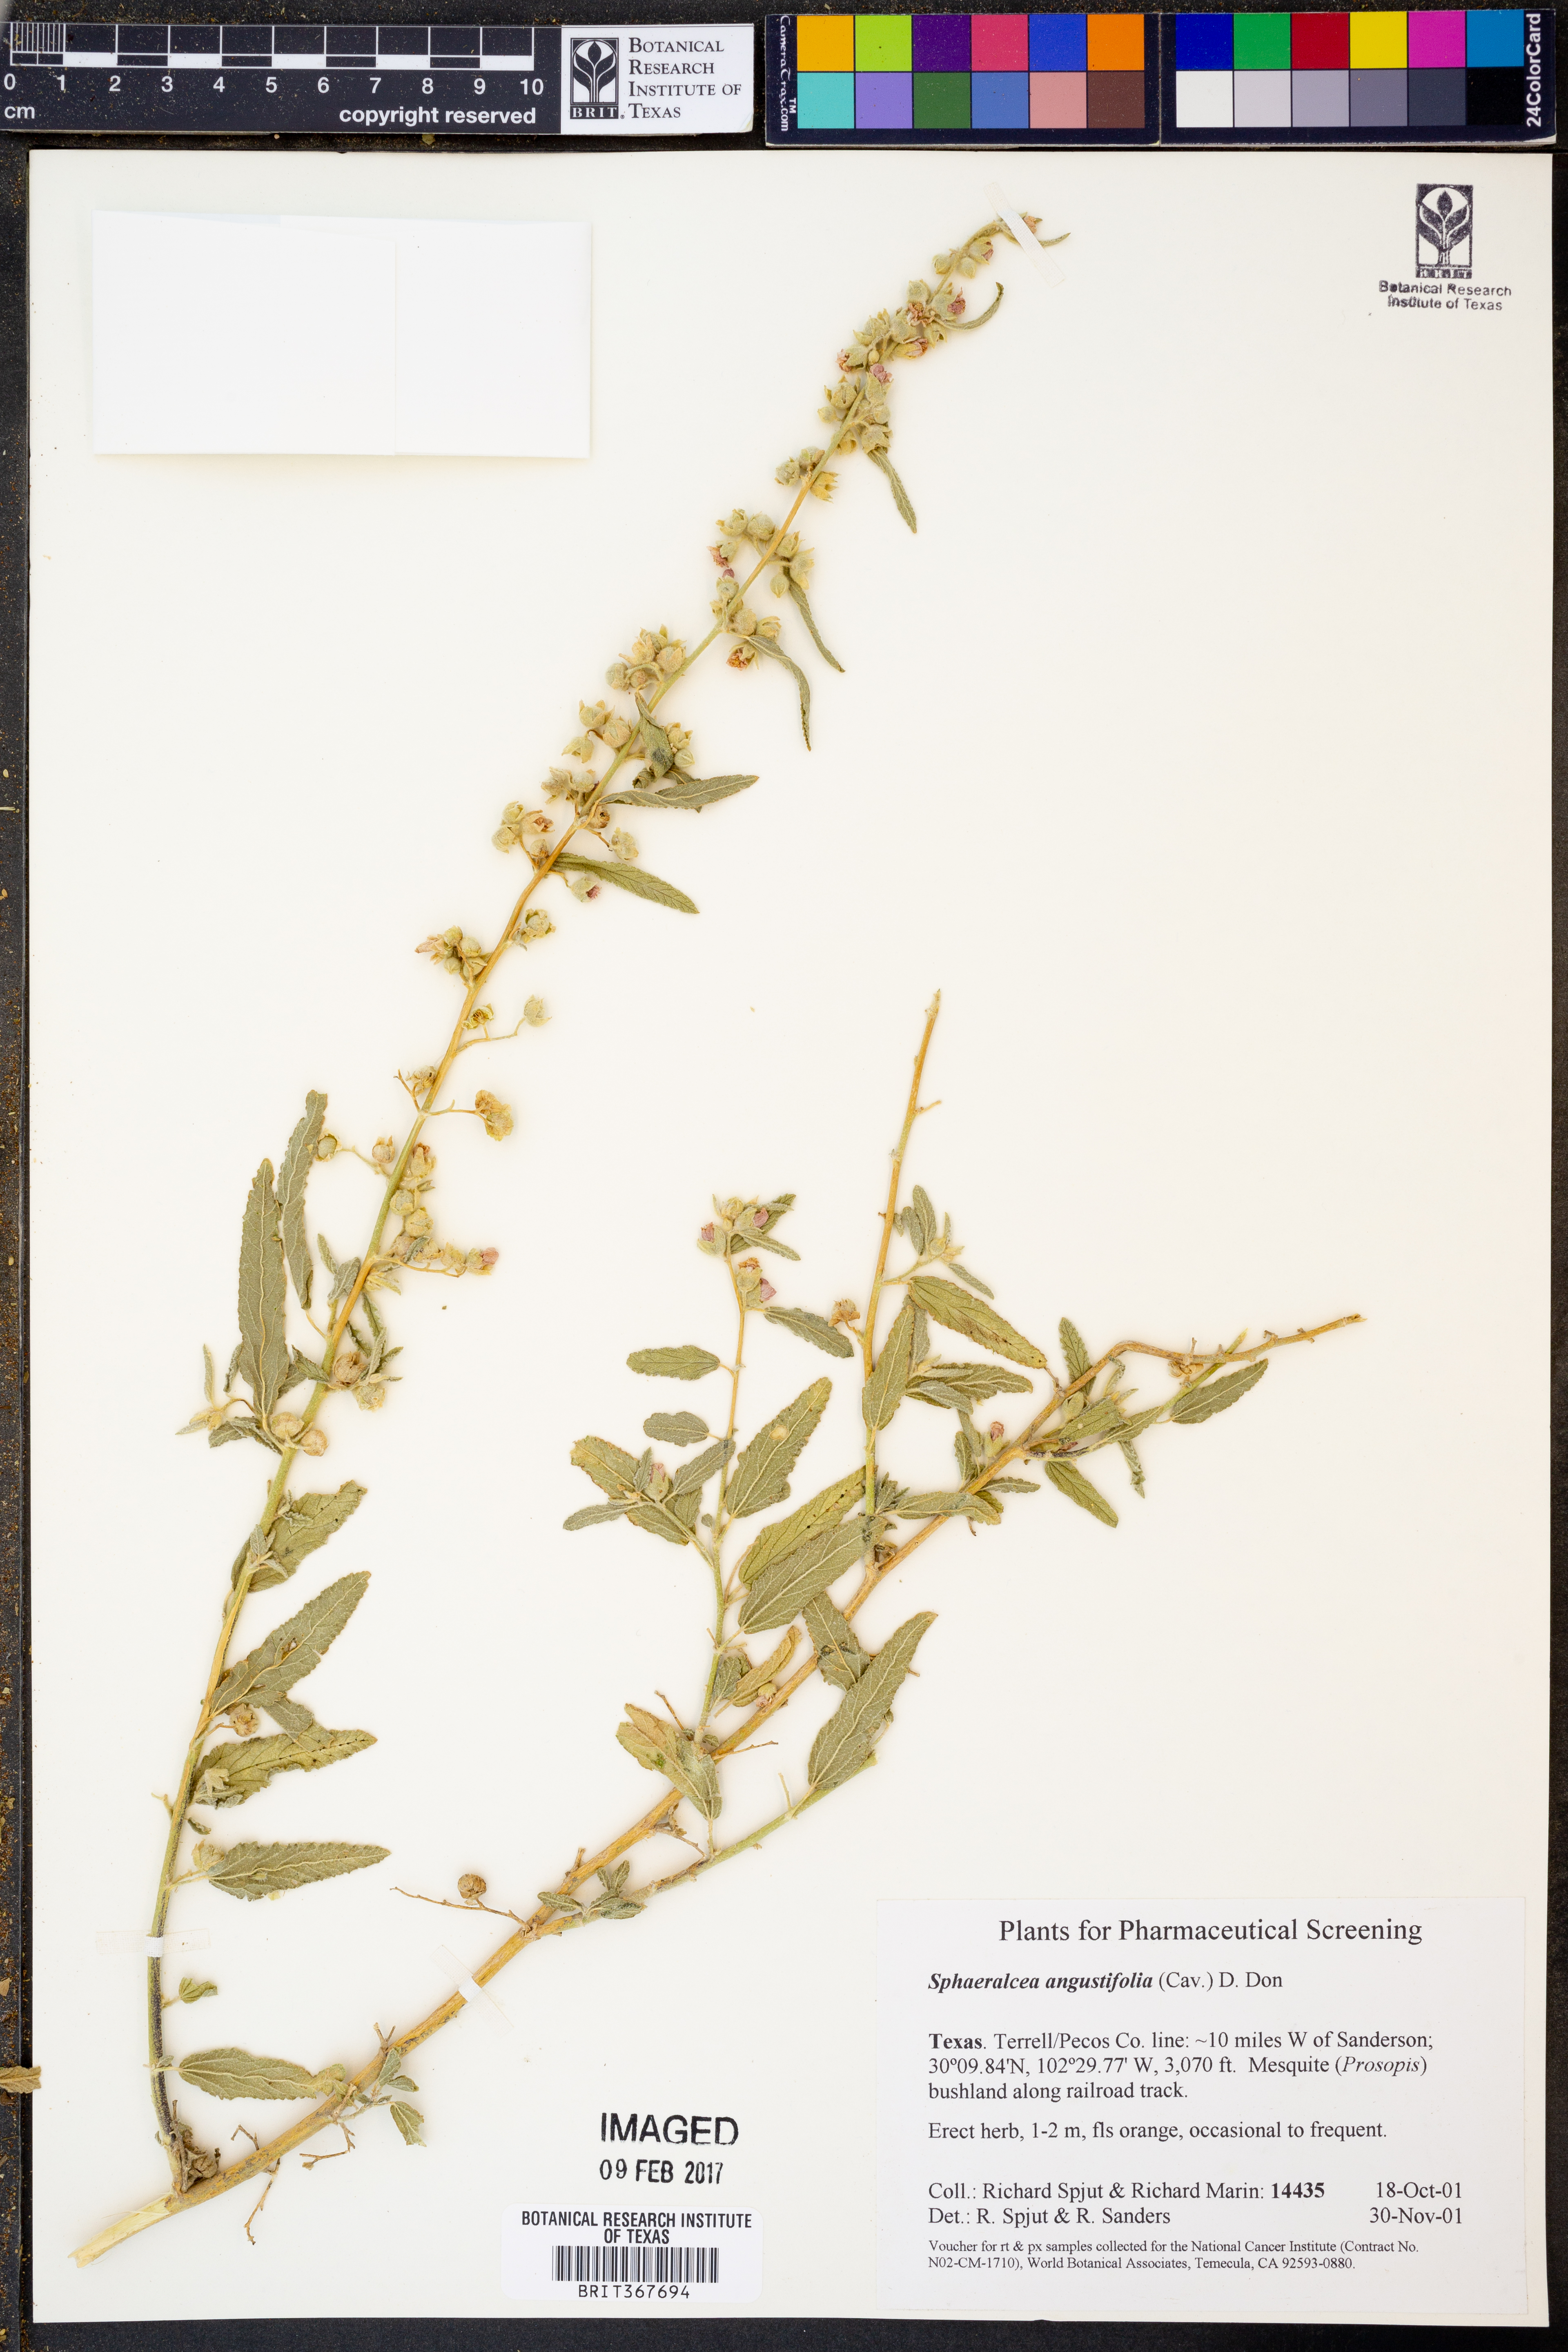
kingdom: Plantae
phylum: Tracheophyta
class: Magnoliopsida
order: Malvales
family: Malvaceae
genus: Sphaeralcea
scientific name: Sphaeralcea angustifolia
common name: Copper globe-mallow
